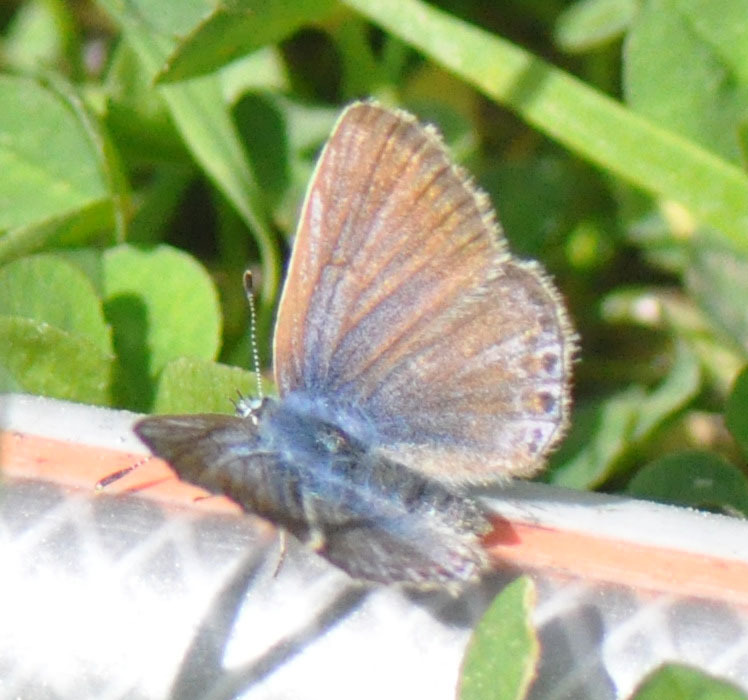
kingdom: Animalia
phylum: Arthropoda
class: Insecta
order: Lepidoptera
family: Lycaenidae
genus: Polyommatus
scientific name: Polyommatus icarus
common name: Almindelig blåfugl
